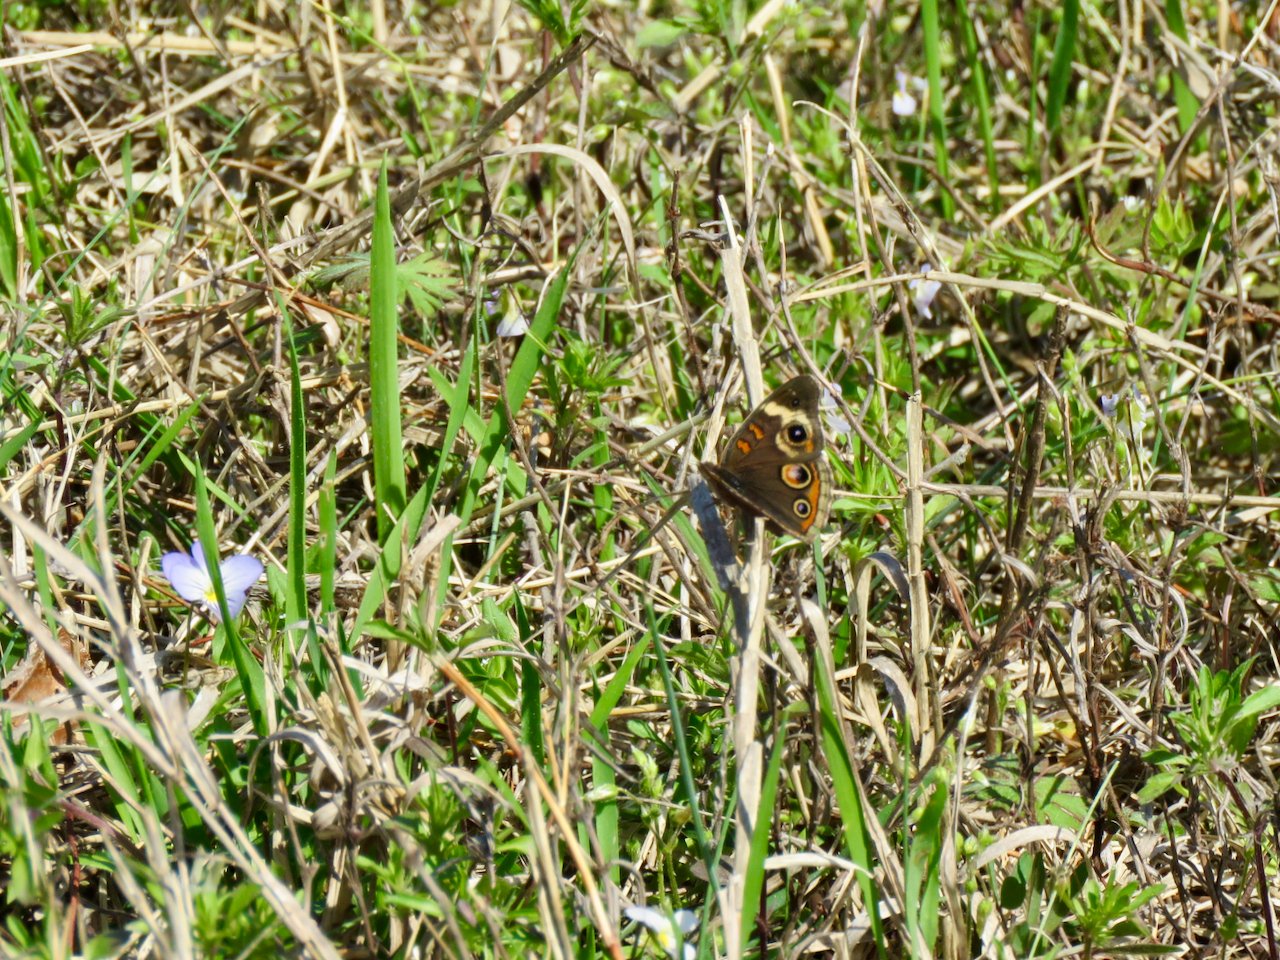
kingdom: Animalia
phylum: Arthropoda
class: Insecta
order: Lepidoptera
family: Nymphalidae
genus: Junonia
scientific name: Junonia coenia
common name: Common Buckeye
